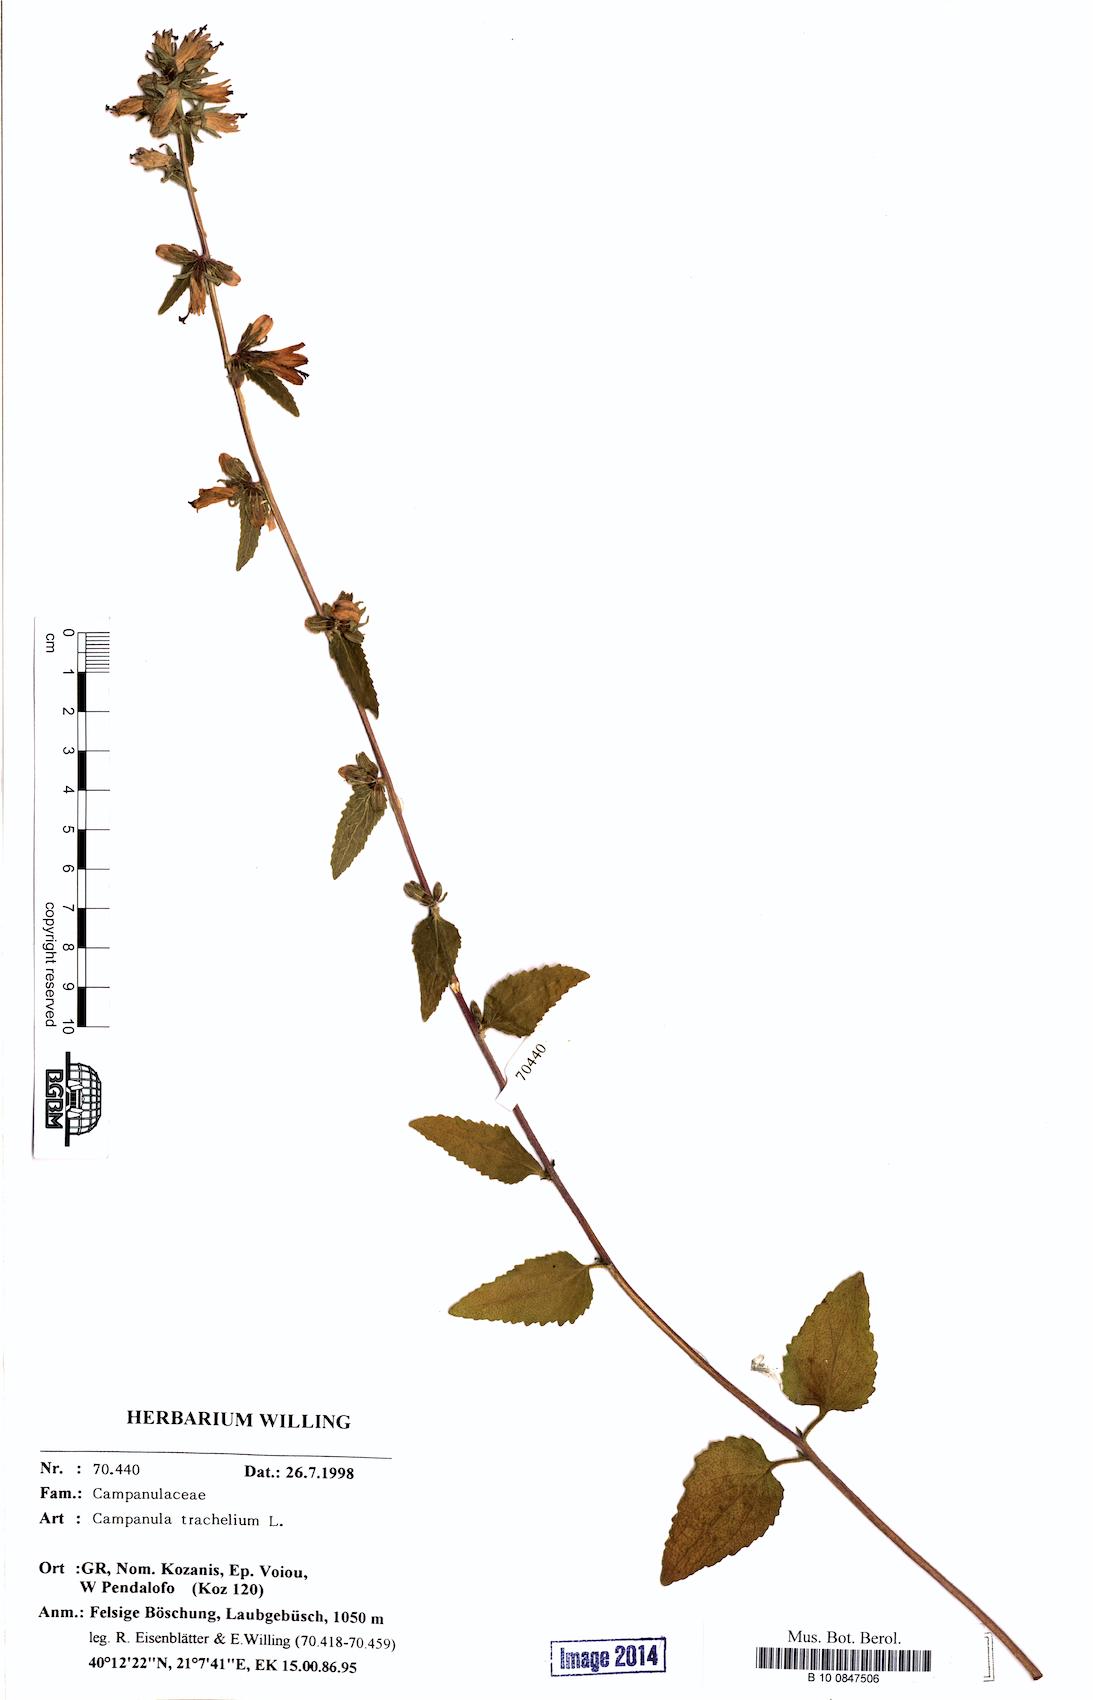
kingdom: Plantae
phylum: Tracheophyta
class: Magnoliopsida
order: Asterales
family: Campanulaceae
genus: Campanula
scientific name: Campanula trachelium
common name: Nettle-leaved bellflower
